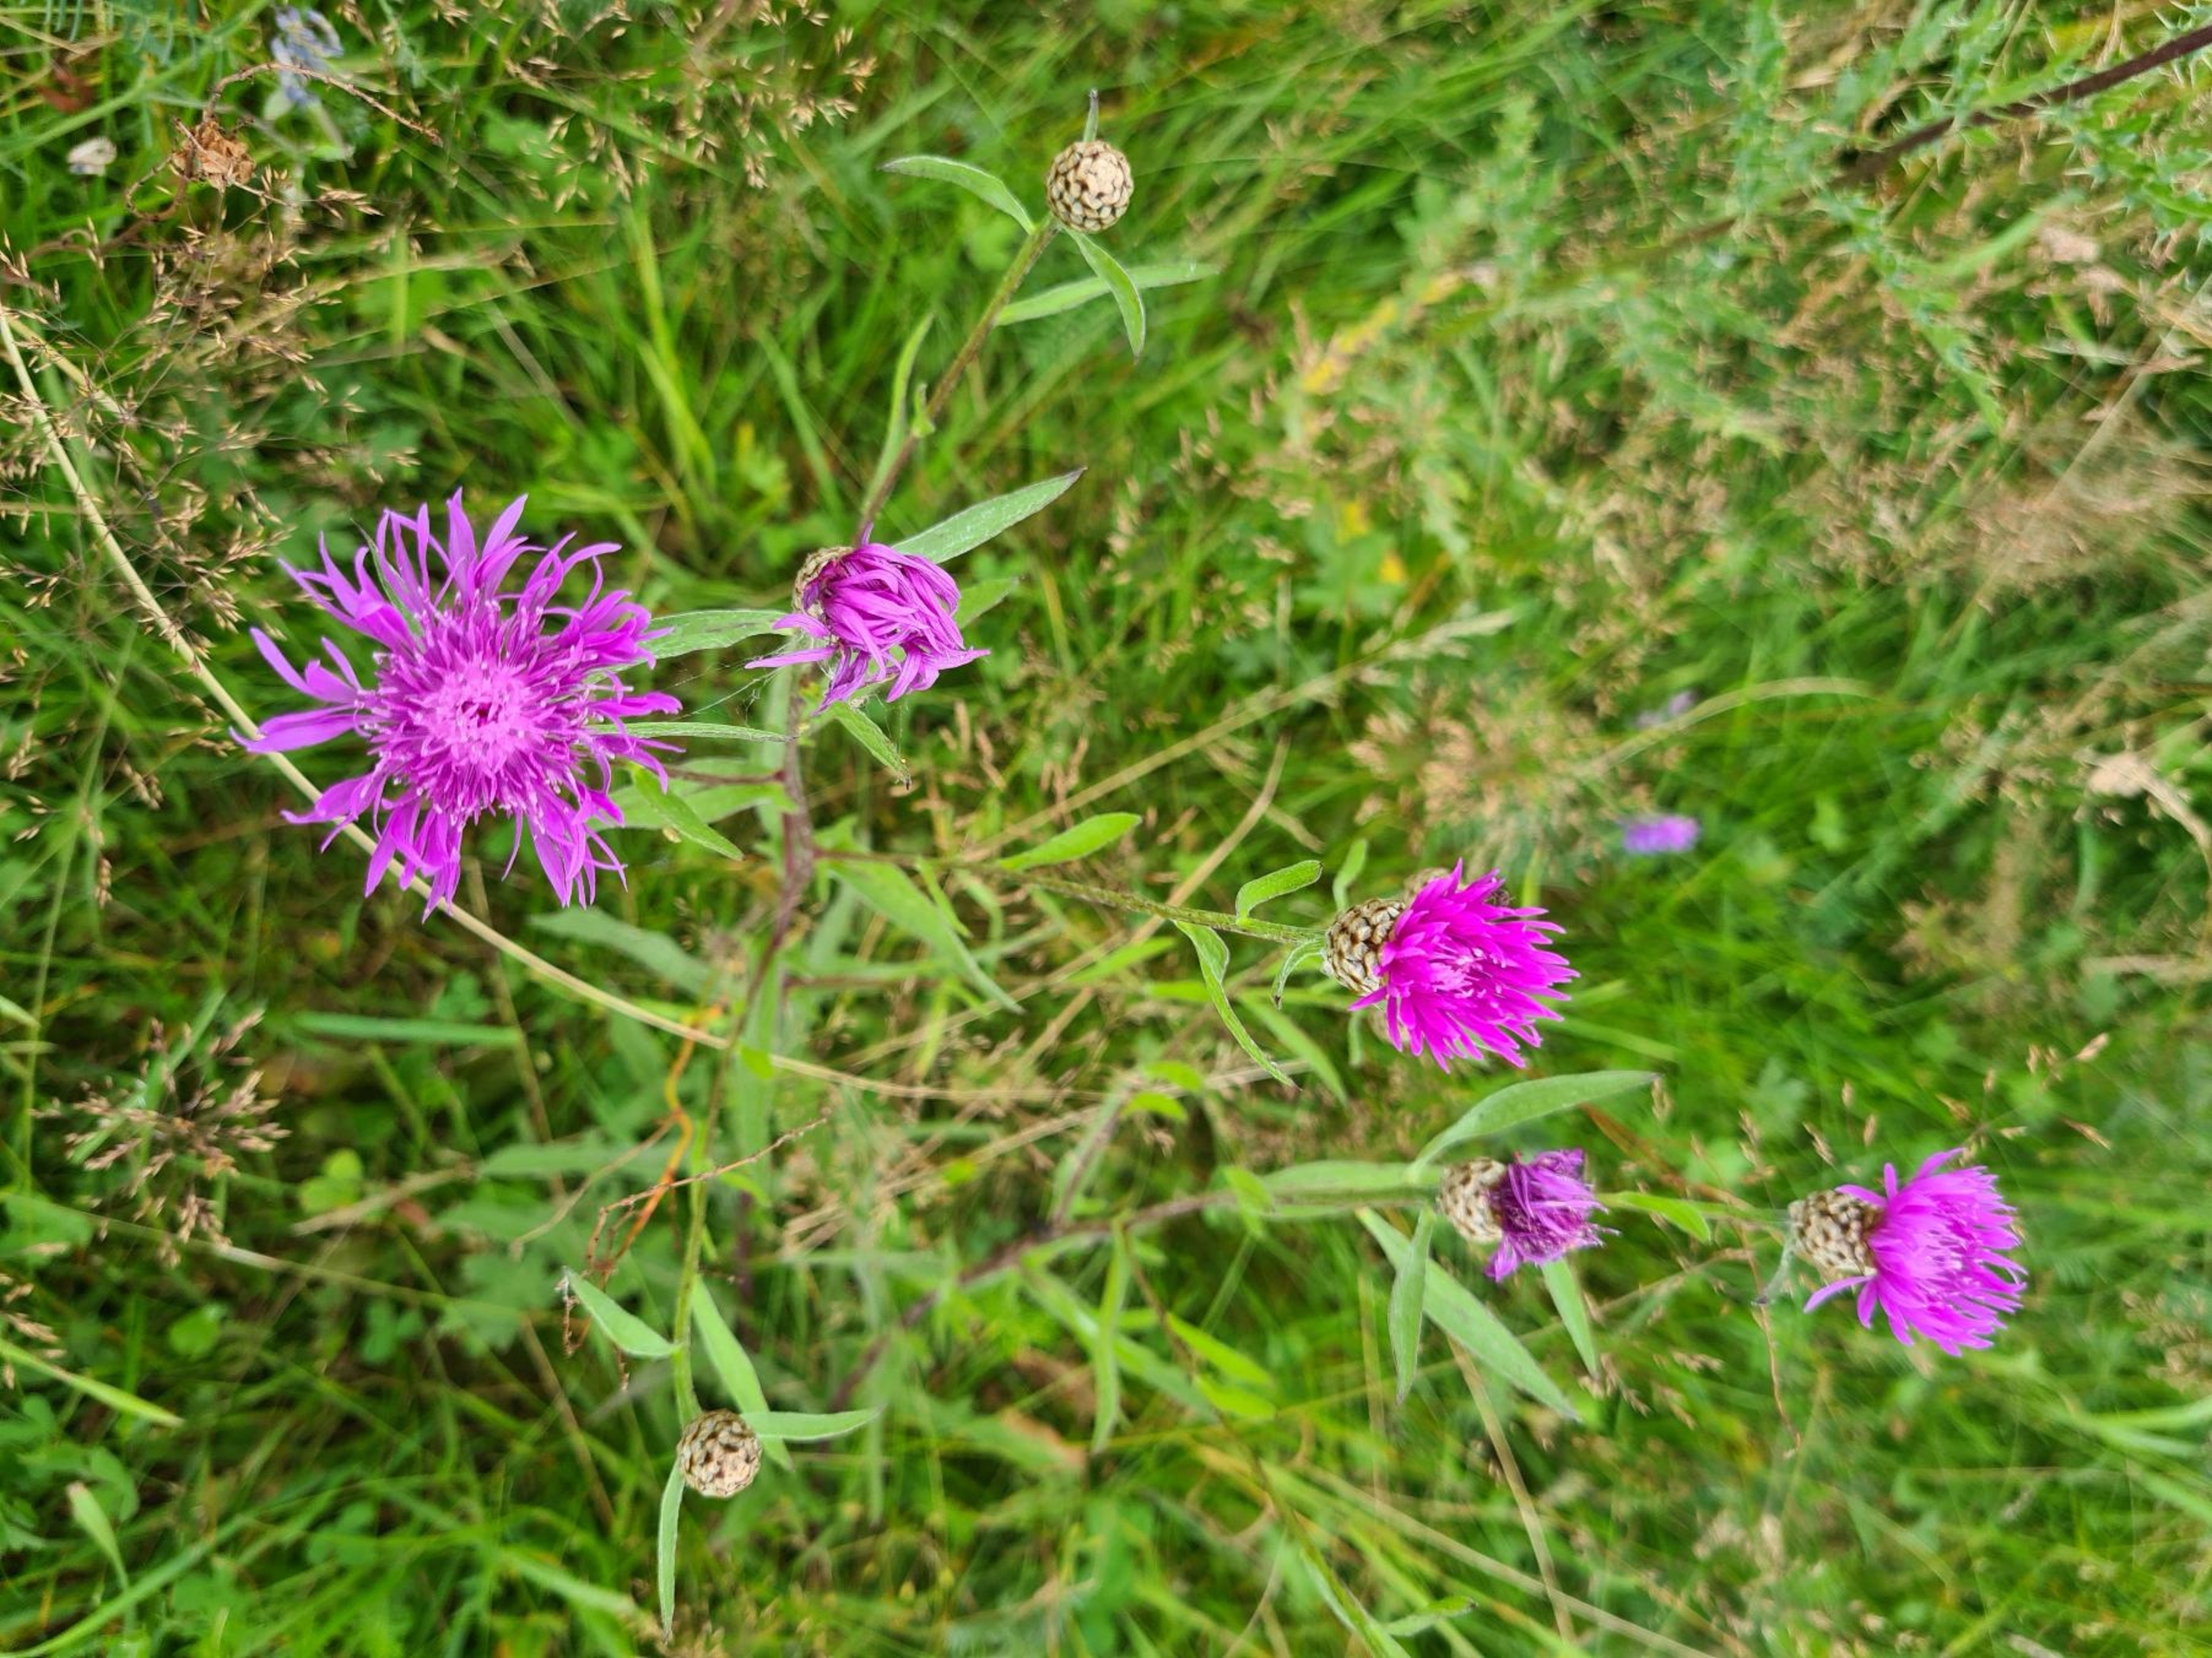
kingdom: Plantae
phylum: Tracheophyta
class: Magnoliopsida
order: Asterales
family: Asteraceae
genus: Centaurea
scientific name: Centaurea jacea
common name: Almindelig knopurt
